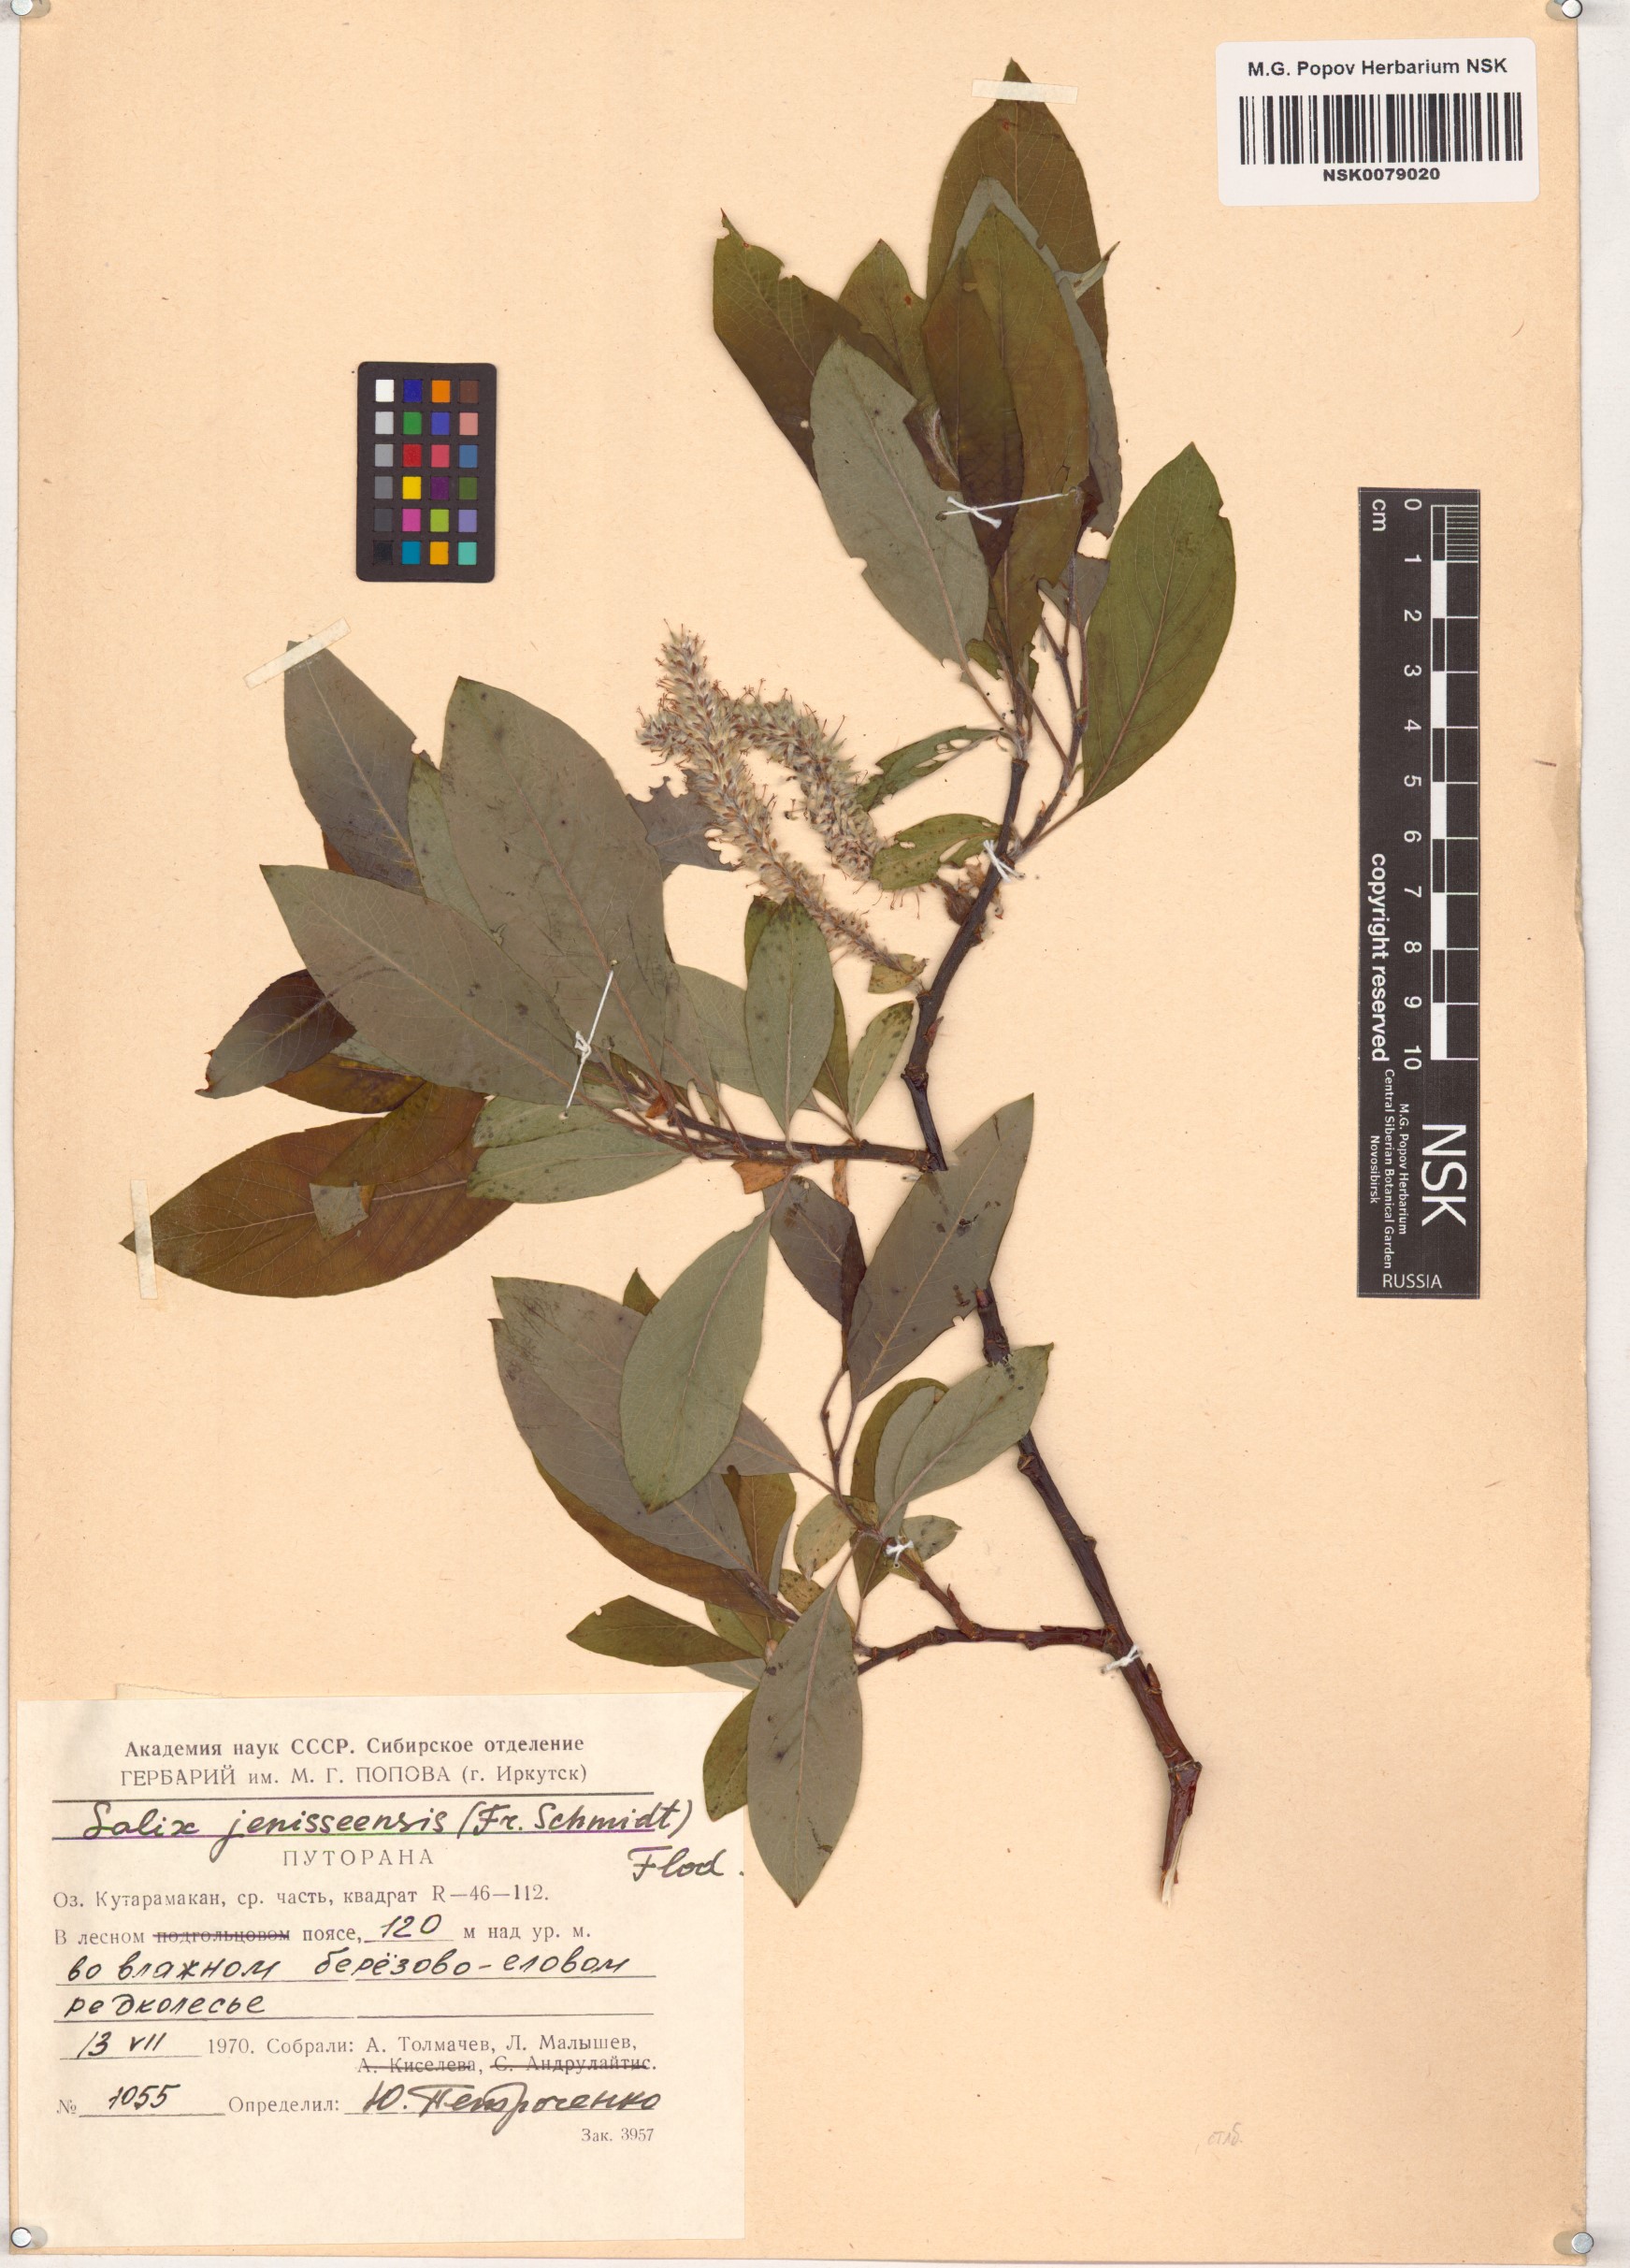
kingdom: Plantae
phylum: Tracheophyta
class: Magnoliopsida
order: Malpighiales
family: Salicaceae
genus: Salix
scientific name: Salix jenisseensis
